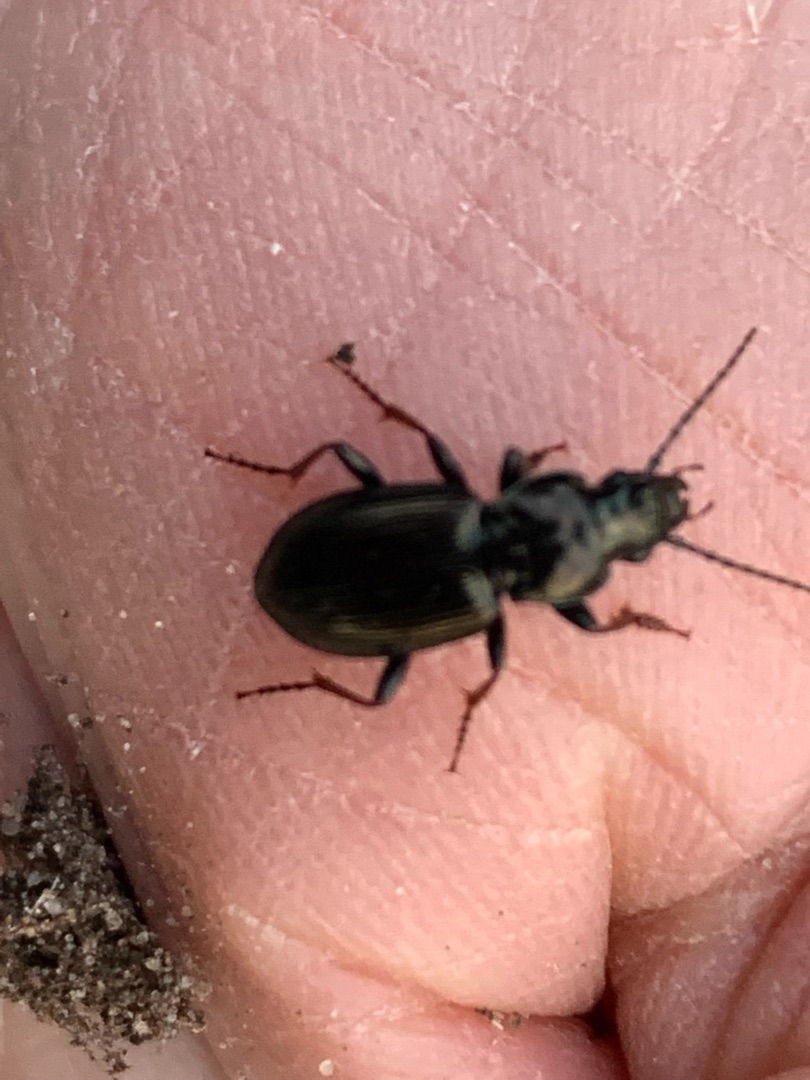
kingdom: Animalia
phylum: Arthropoda
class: Insecta
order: Coleoptera
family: Carabidae
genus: Pterostichus
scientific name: Pterostichus oblongopunctatus
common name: Bronzejordløber
